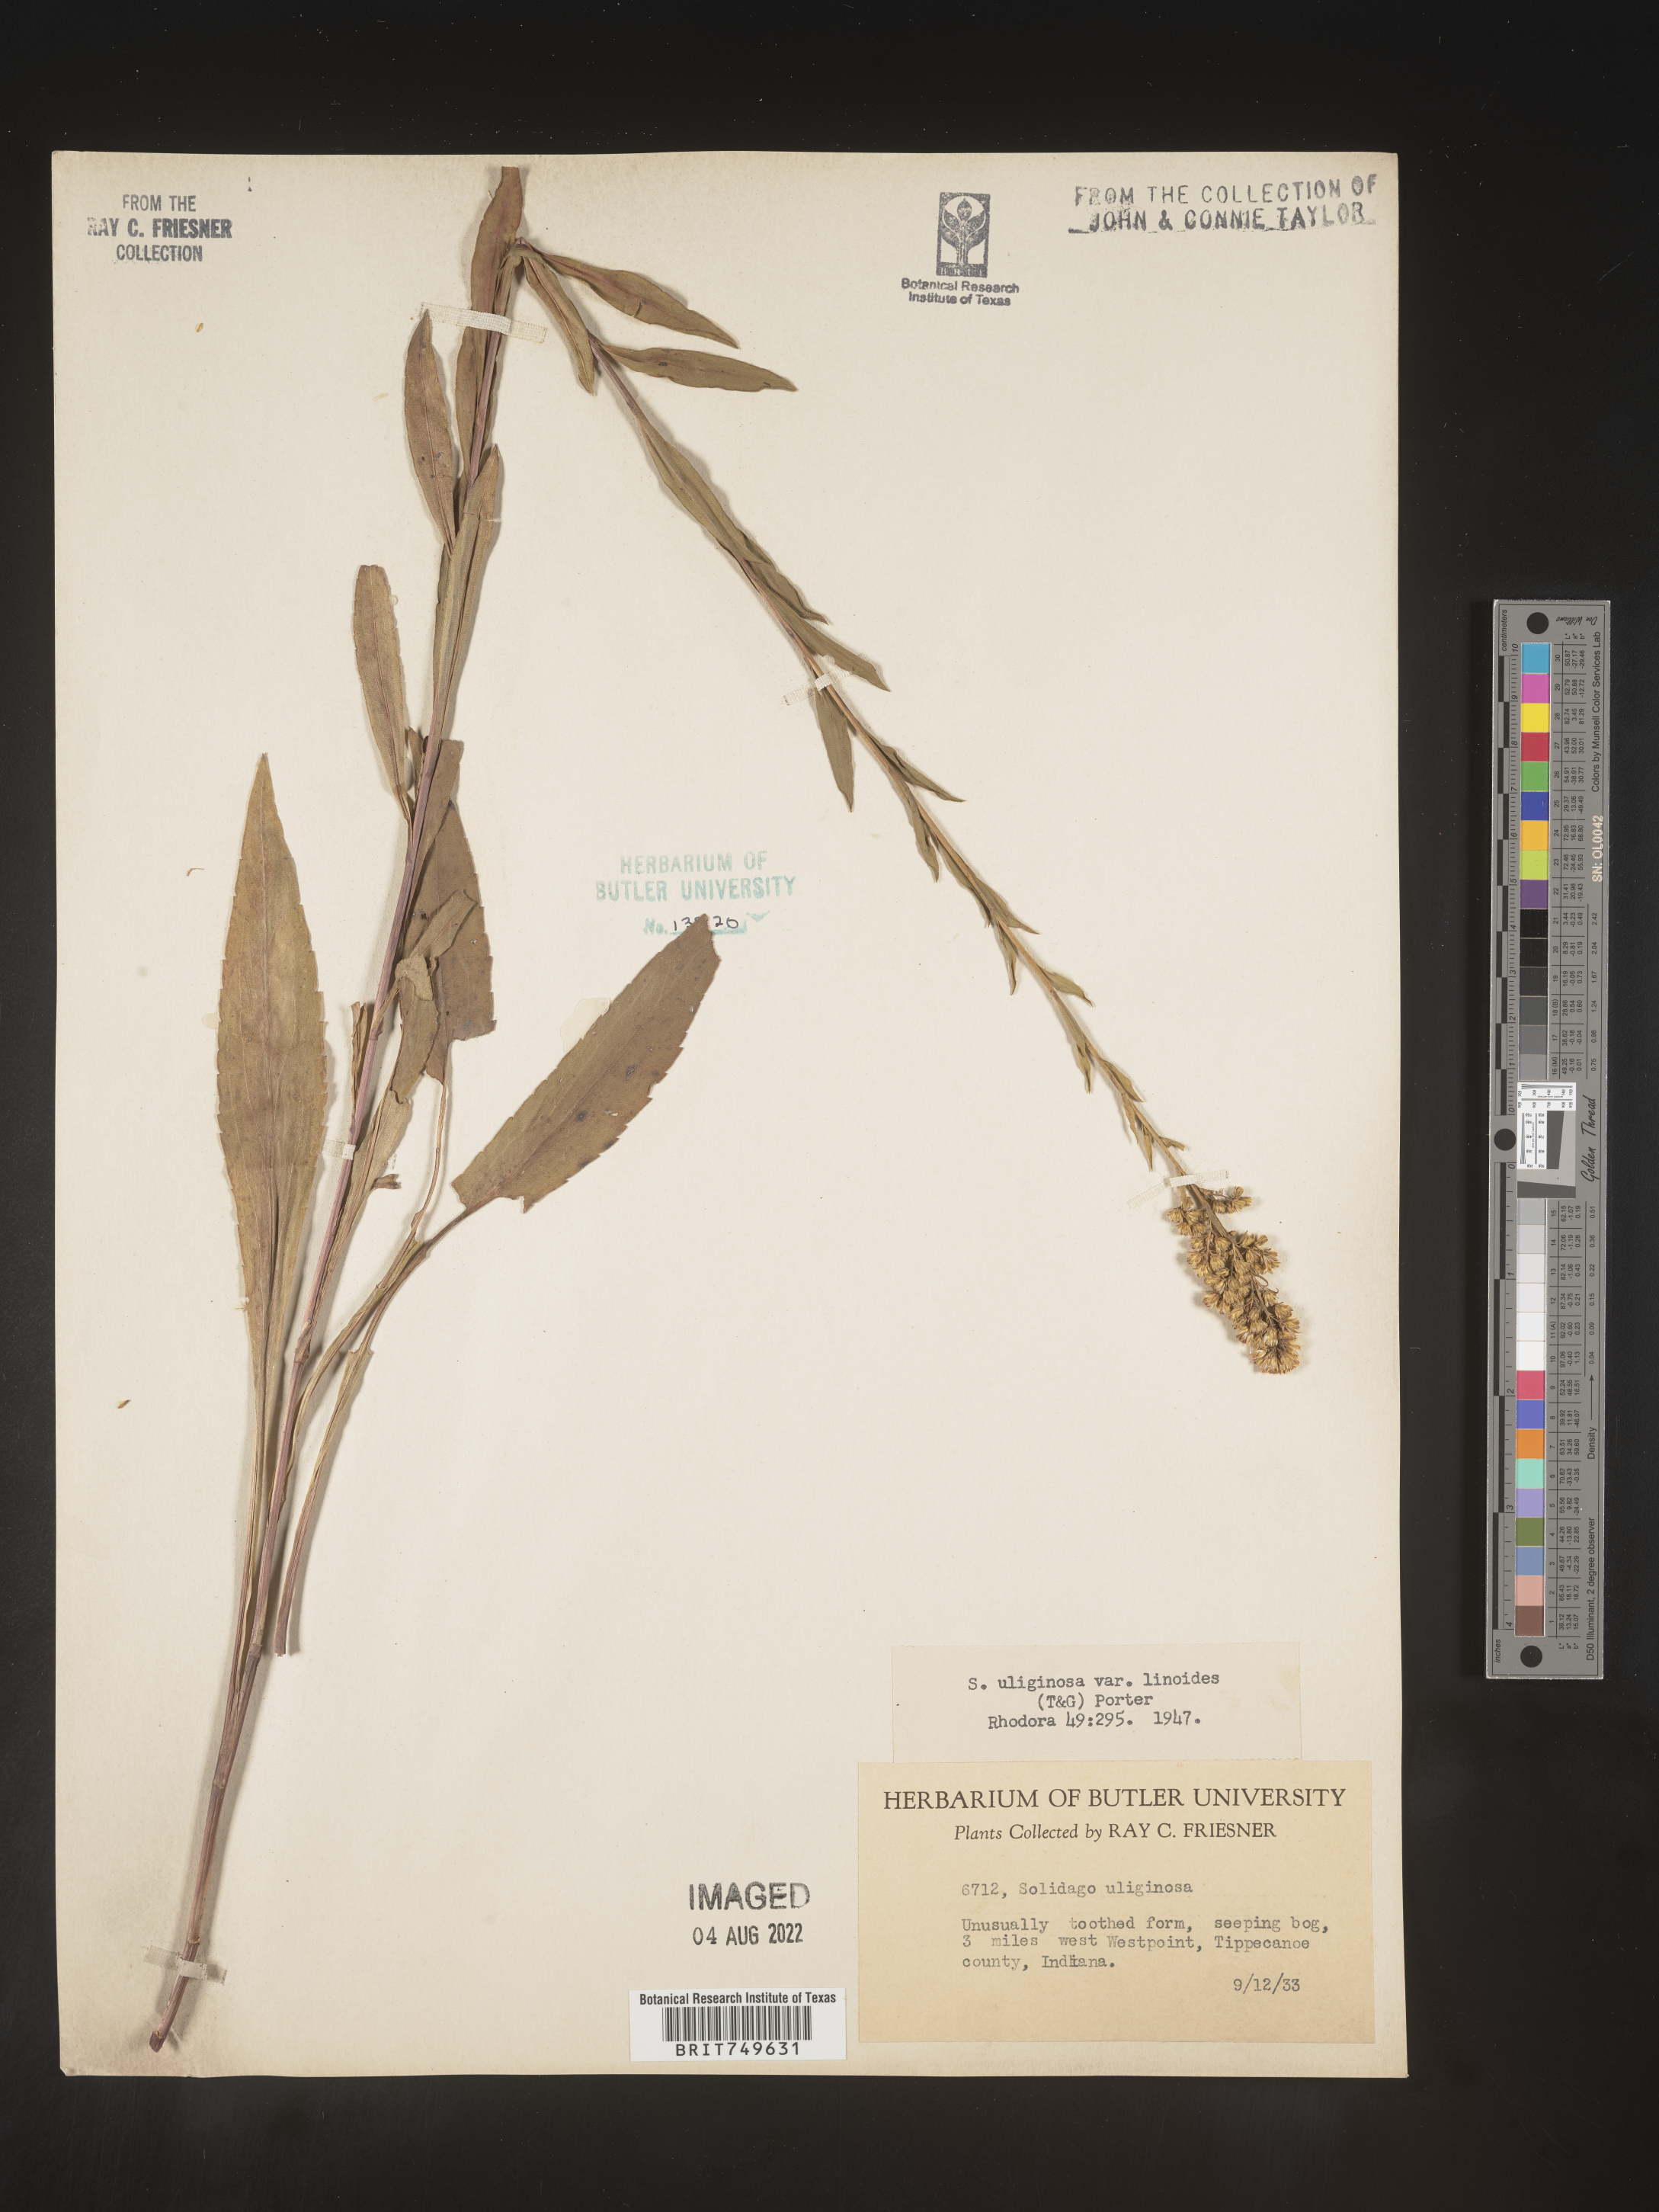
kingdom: Plantae
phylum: Tracheophyta
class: Magnoliopsida
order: Asterales
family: Asteraceae
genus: Solidago
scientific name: Solidago uliginosa
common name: Bog goldenrod
